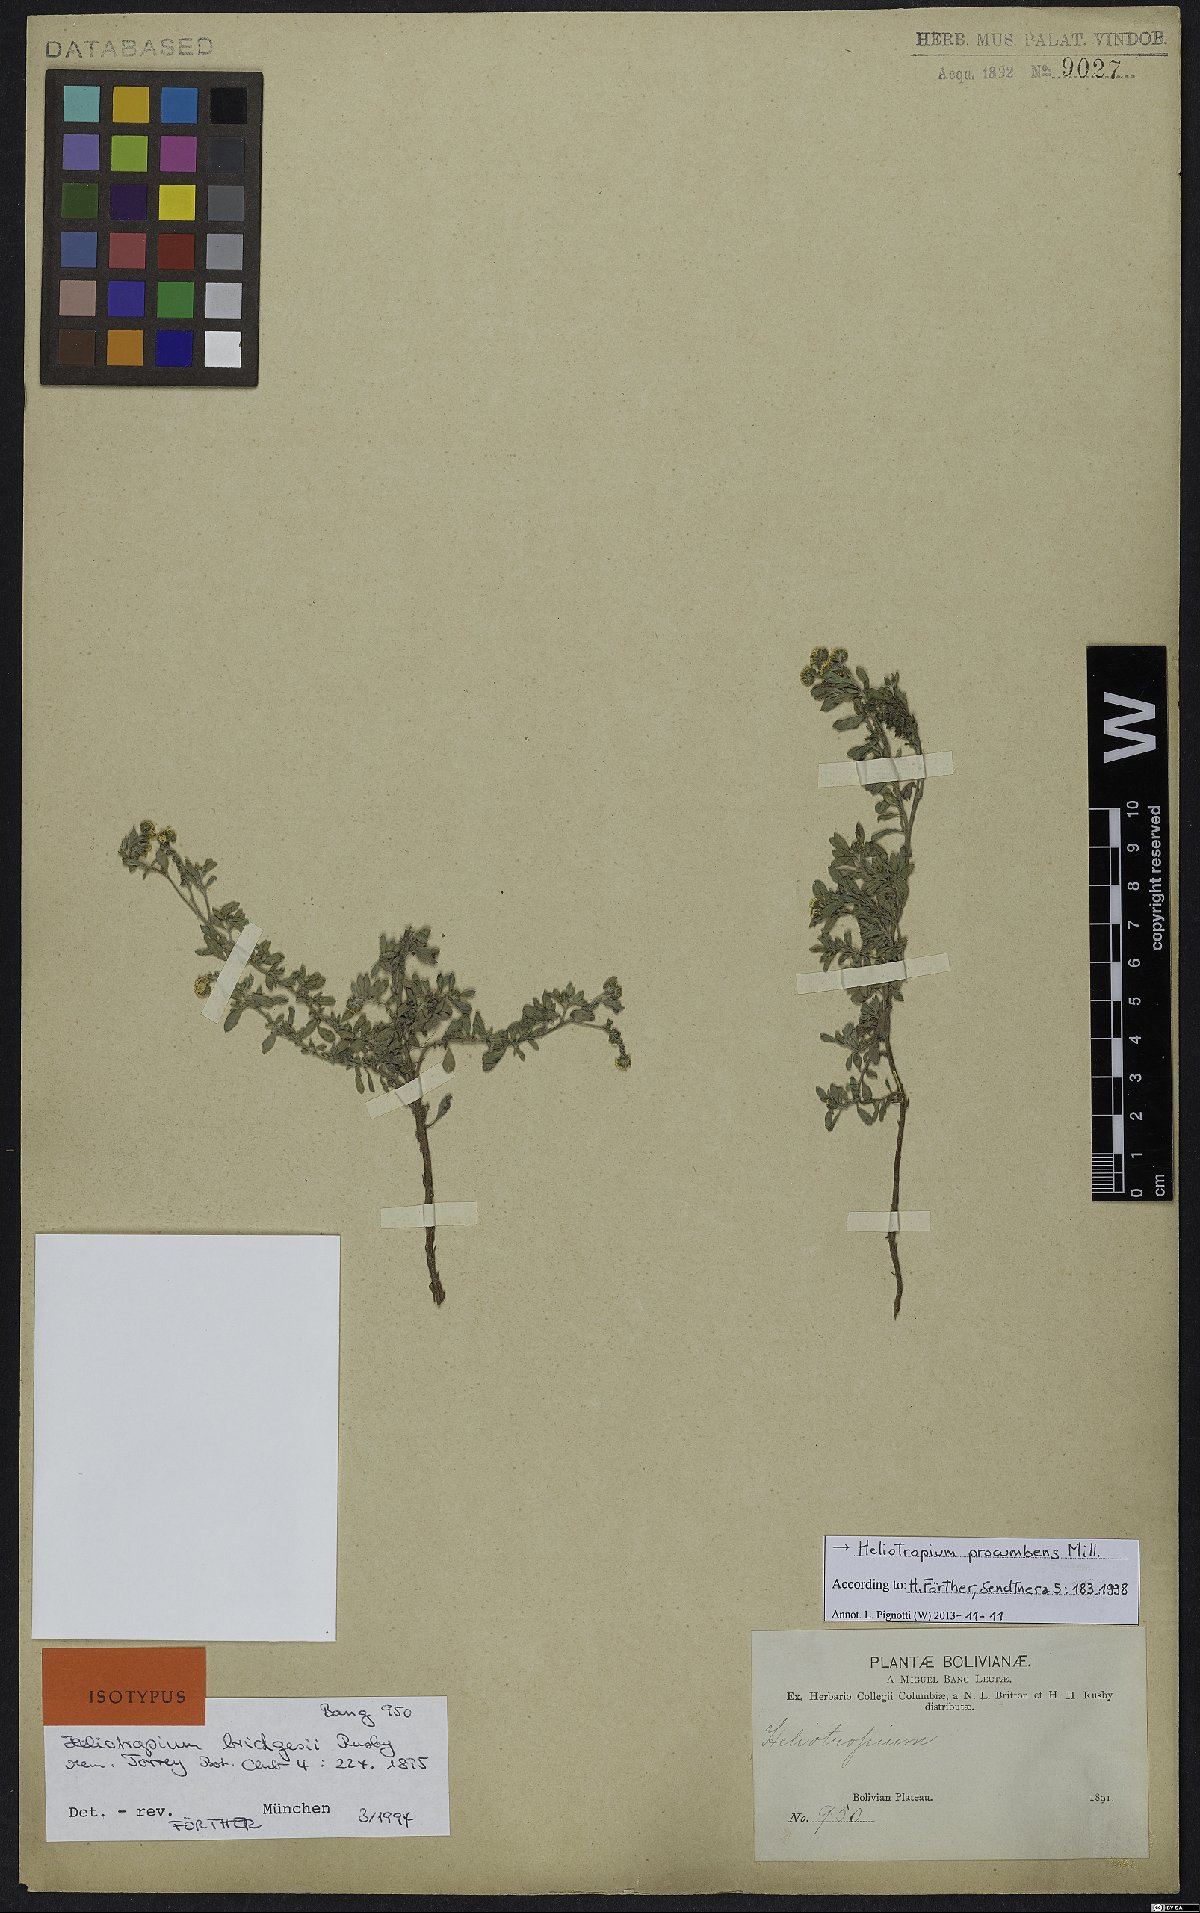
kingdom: Plantae
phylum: Tracheophyta
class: Magnoliopsida
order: Boraginales
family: Heliotropiaceae
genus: Euploca
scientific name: Euploca procumbens
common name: Fourspike heliotrope
